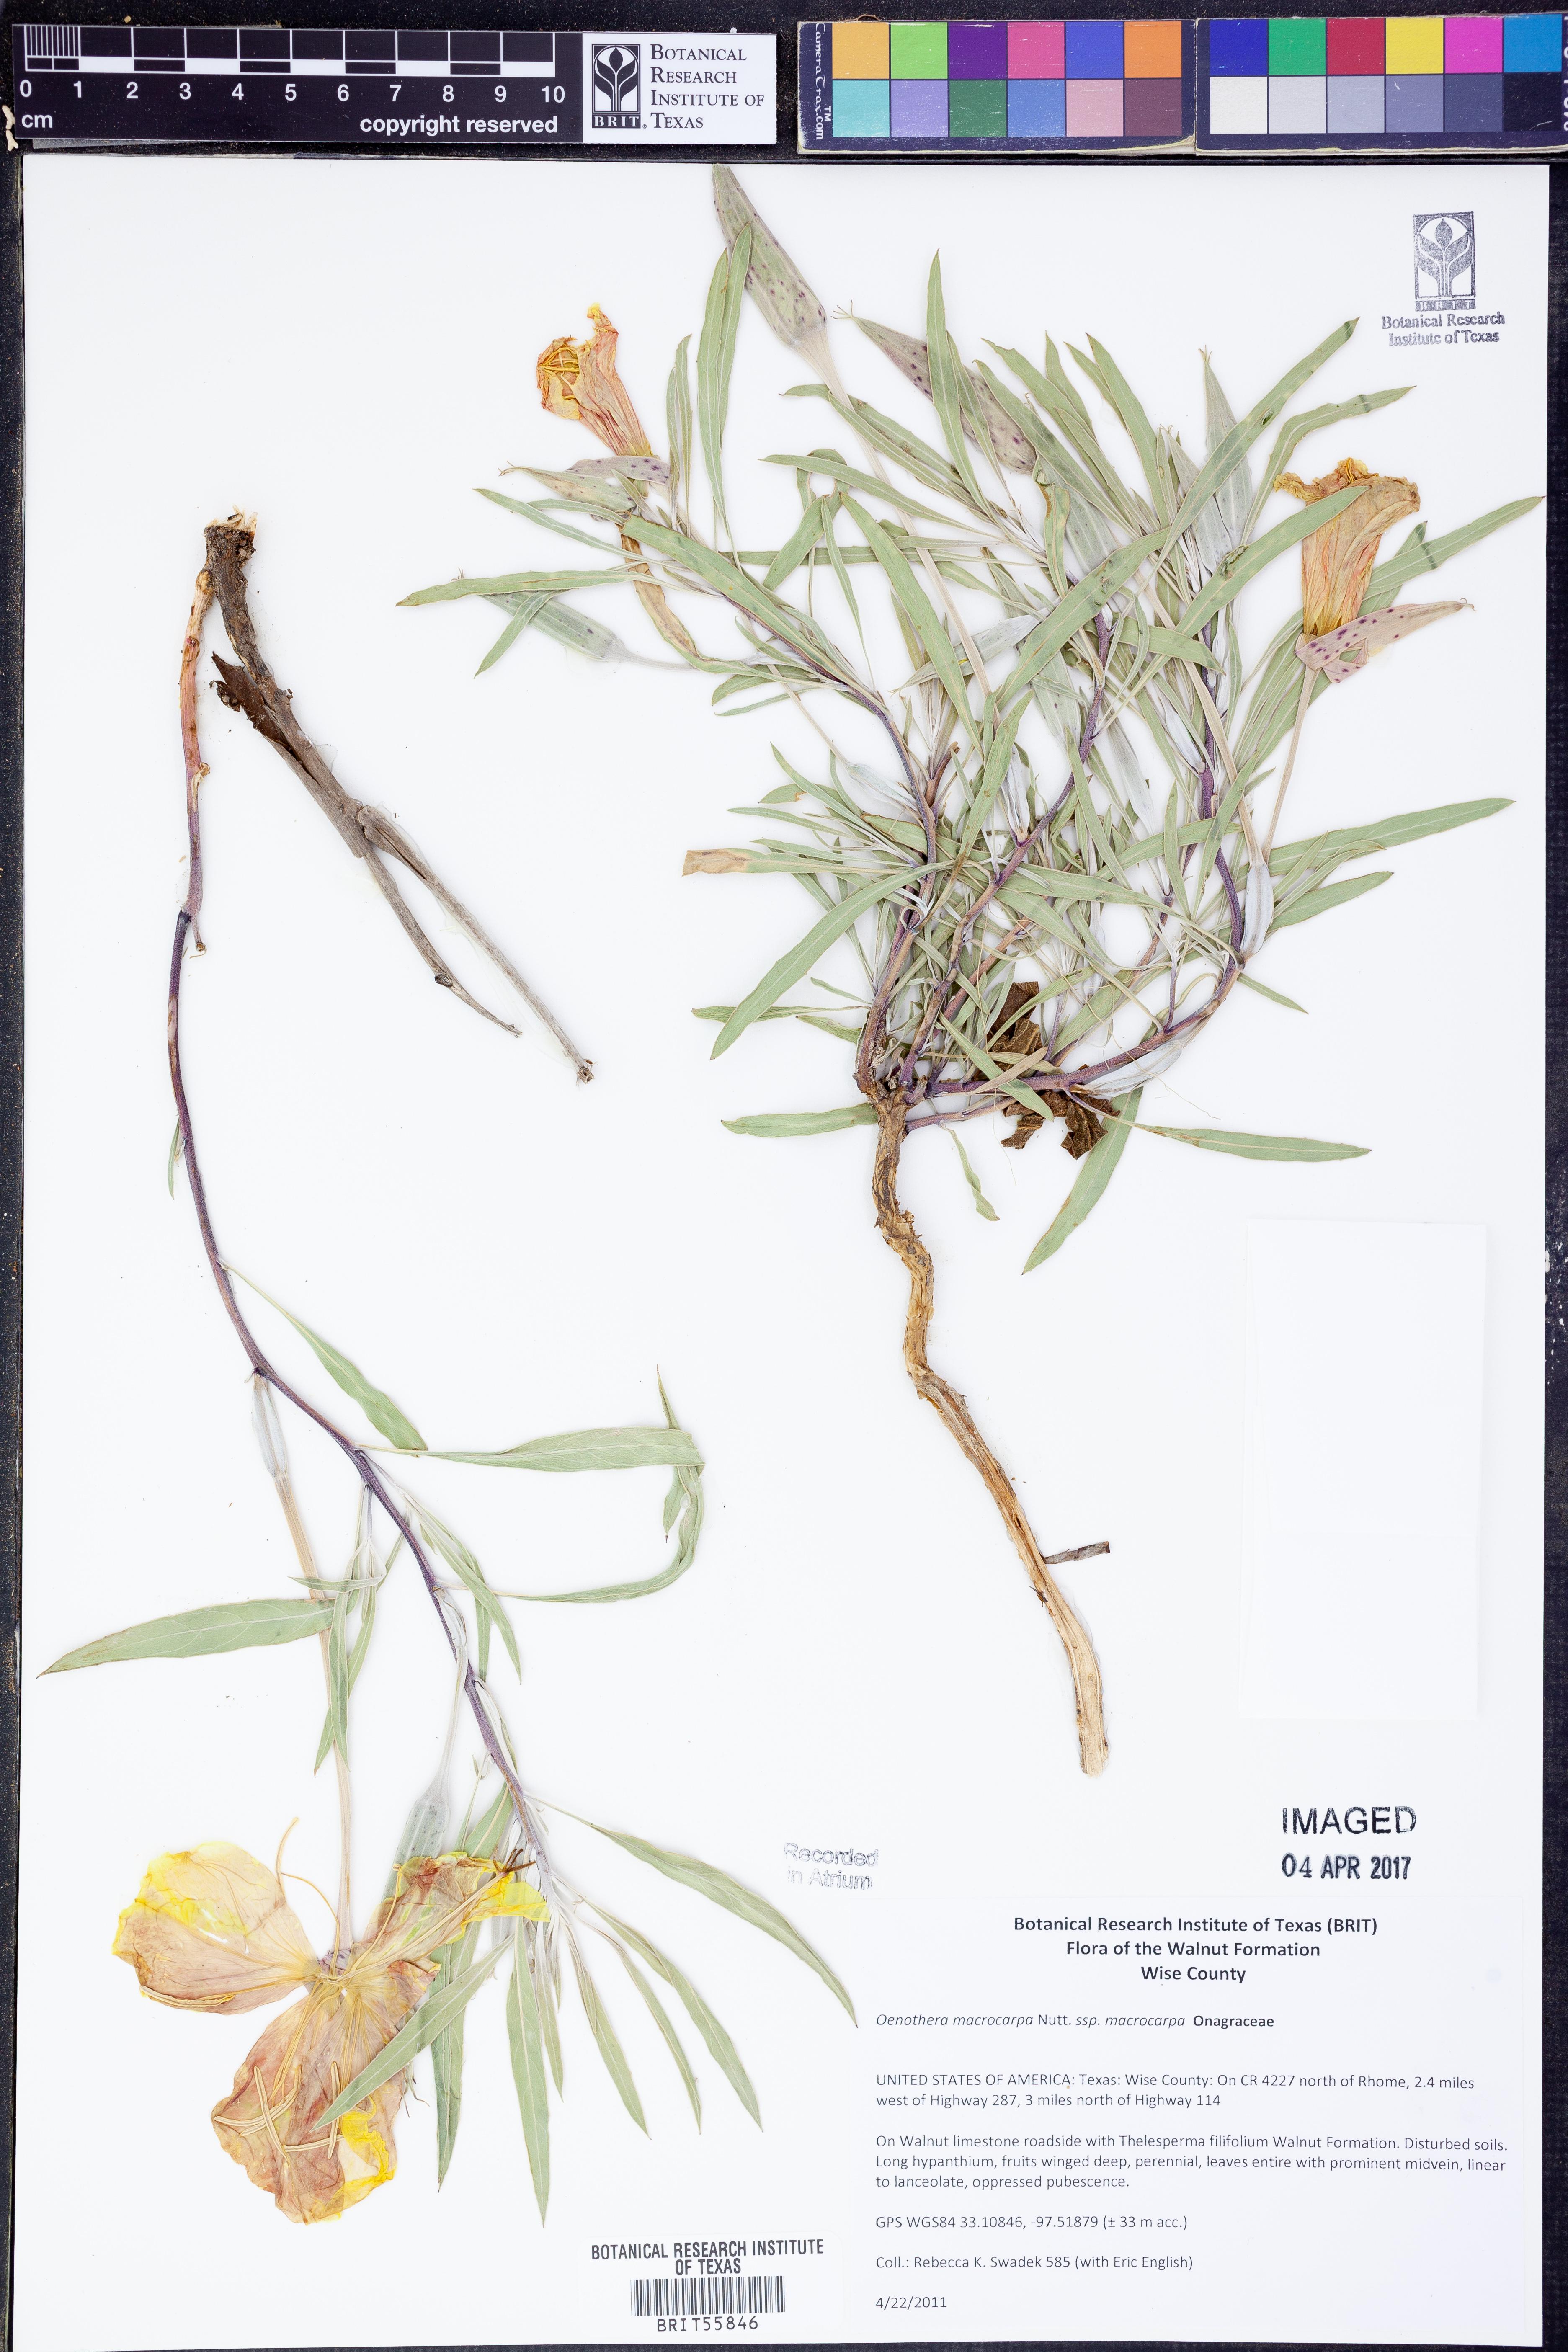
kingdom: Plantae
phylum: Tracheophyta
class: Magnoliopsida
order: Myrtales
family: Onagraceae
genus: Oenothera
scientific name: Oenothera macrocarpa
